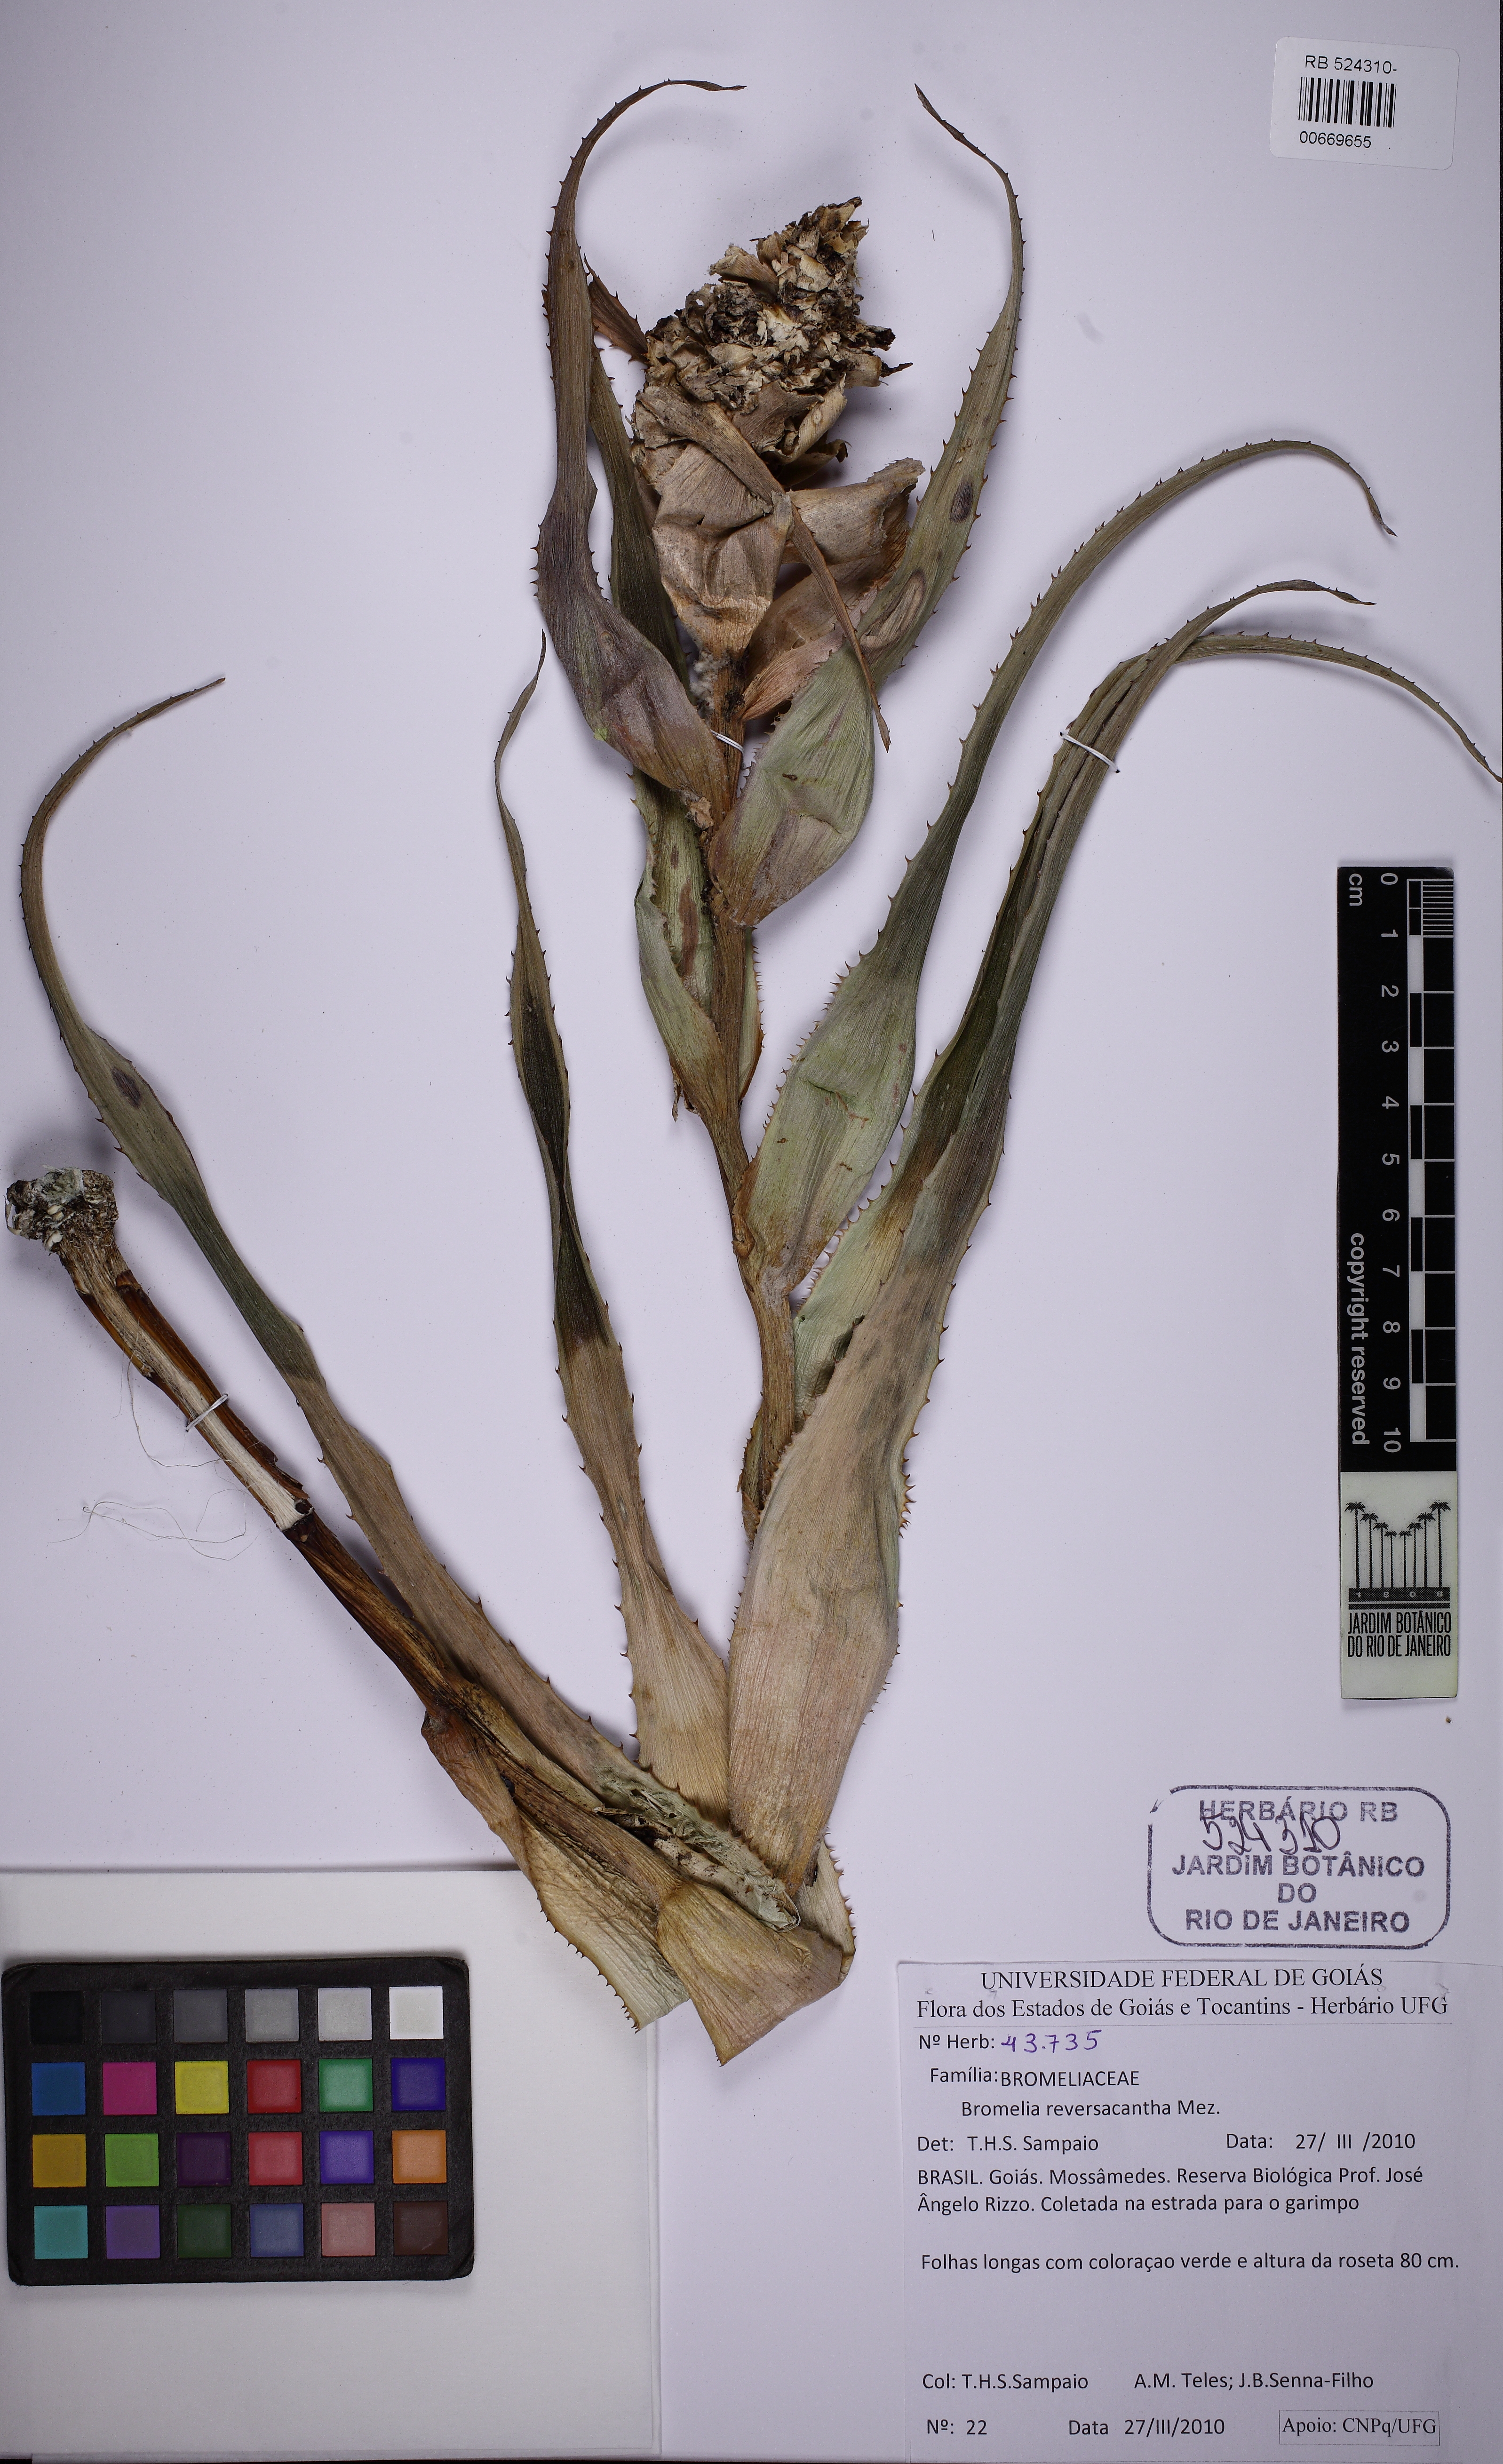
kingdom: Plantae
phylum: Tracheophyta
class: Liliopsida
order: Poales
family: Bromeliaceae
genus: Bromelia
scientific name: Bromelia interior
